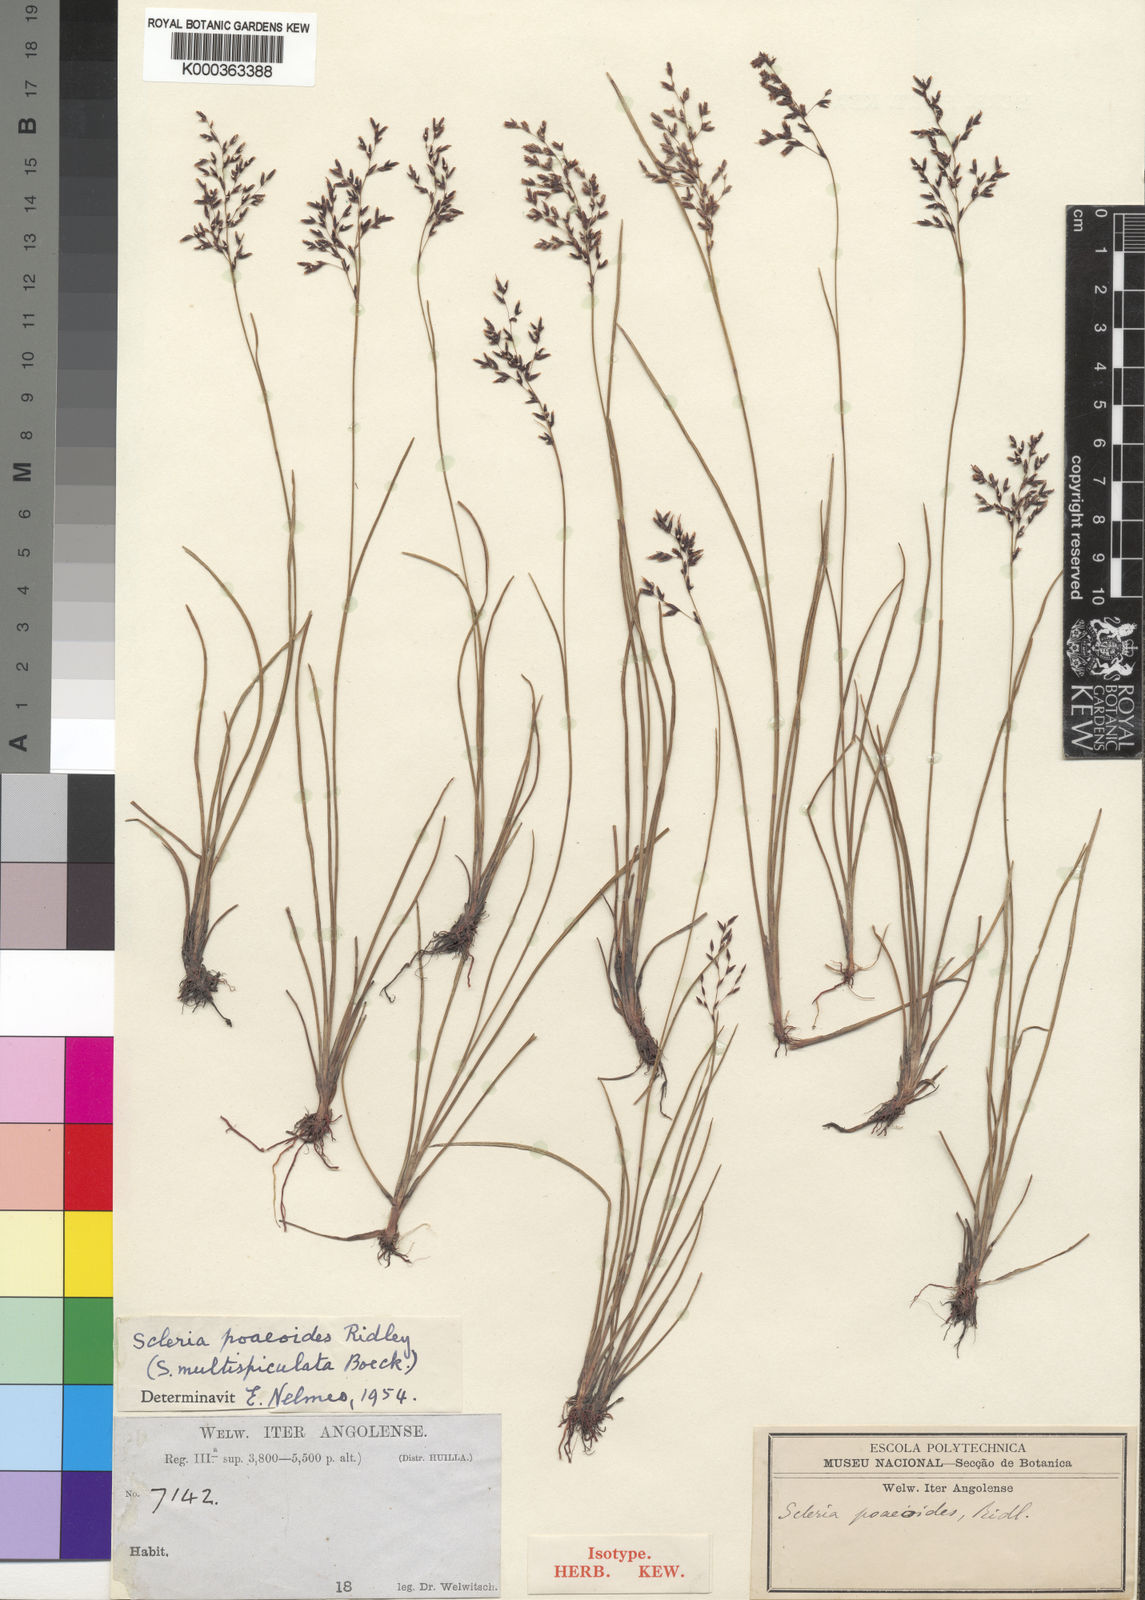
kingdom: Plantae
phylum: Tracheophyta
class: Liliopsida
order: Poales
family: Cyperaceae
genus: Scleria
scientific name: Scleria pooides
